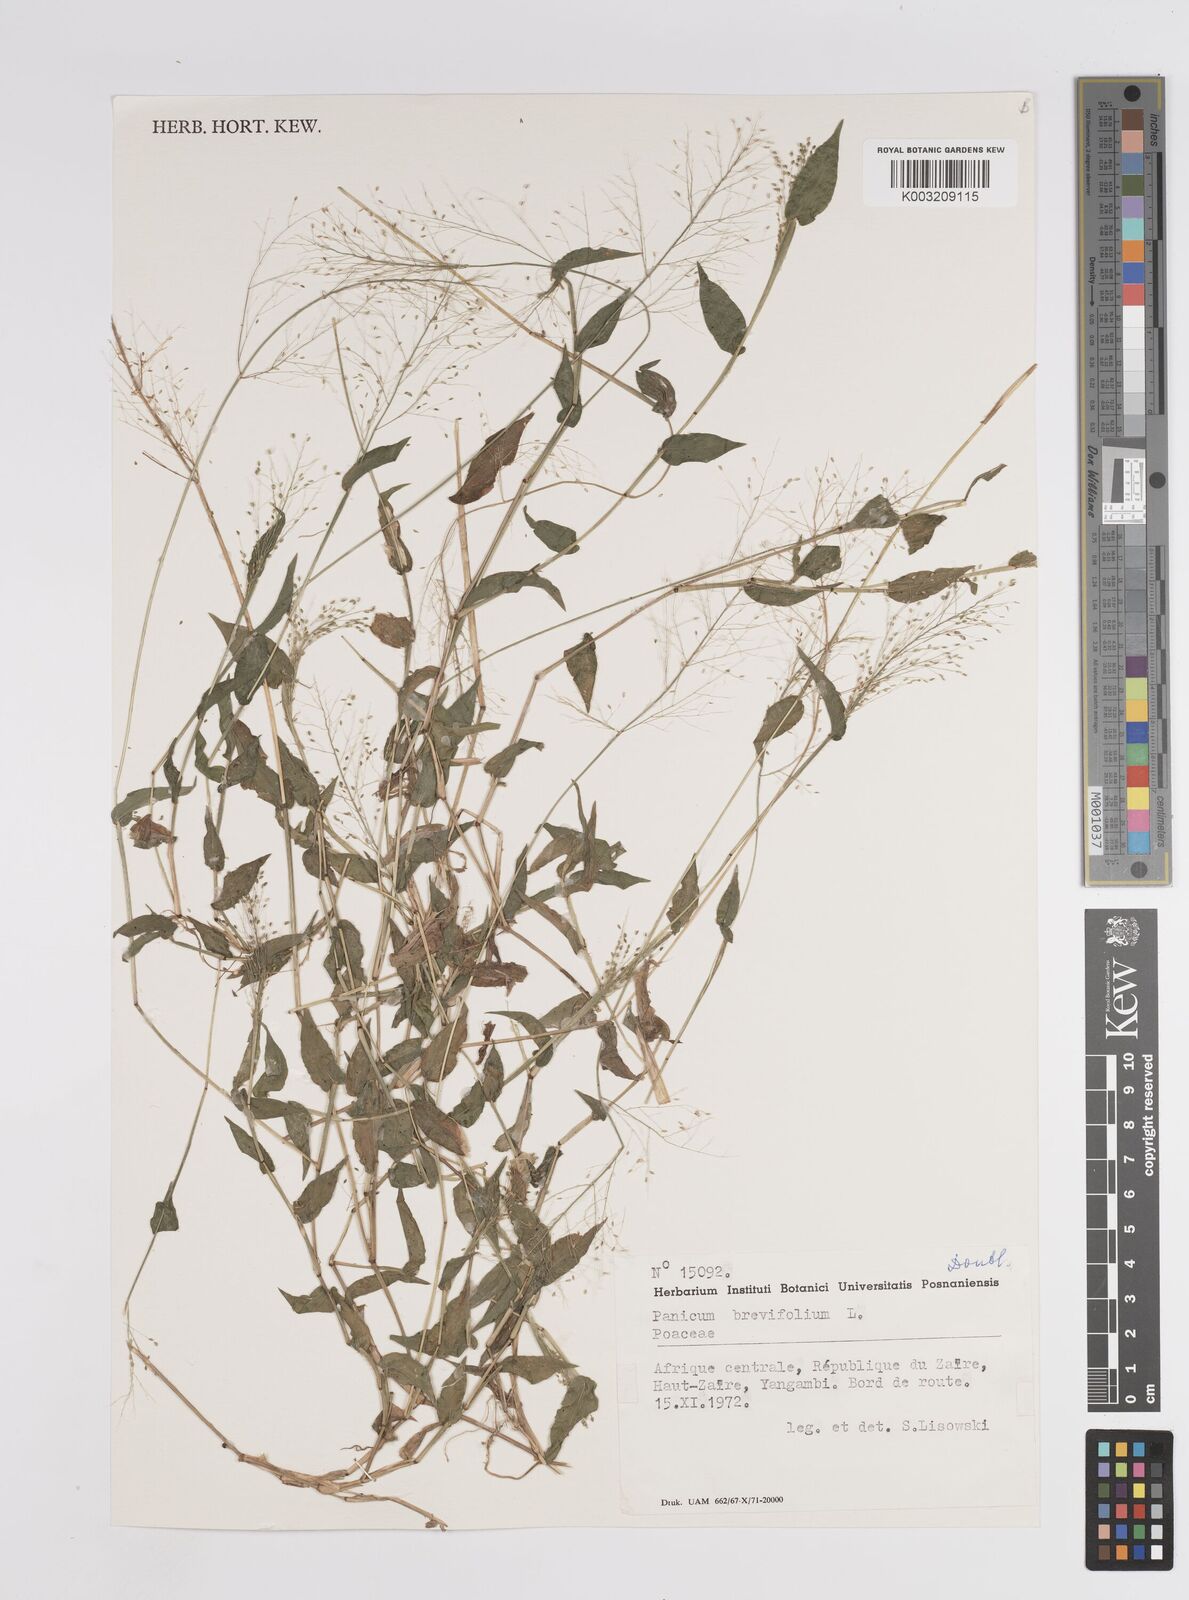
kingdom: Plantae
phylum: Tracheophyta
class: Liliopsida
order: Poales
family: Poaceae
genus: Panicum
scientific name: Panicum brevifolium
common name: Shortleaf panic grass
